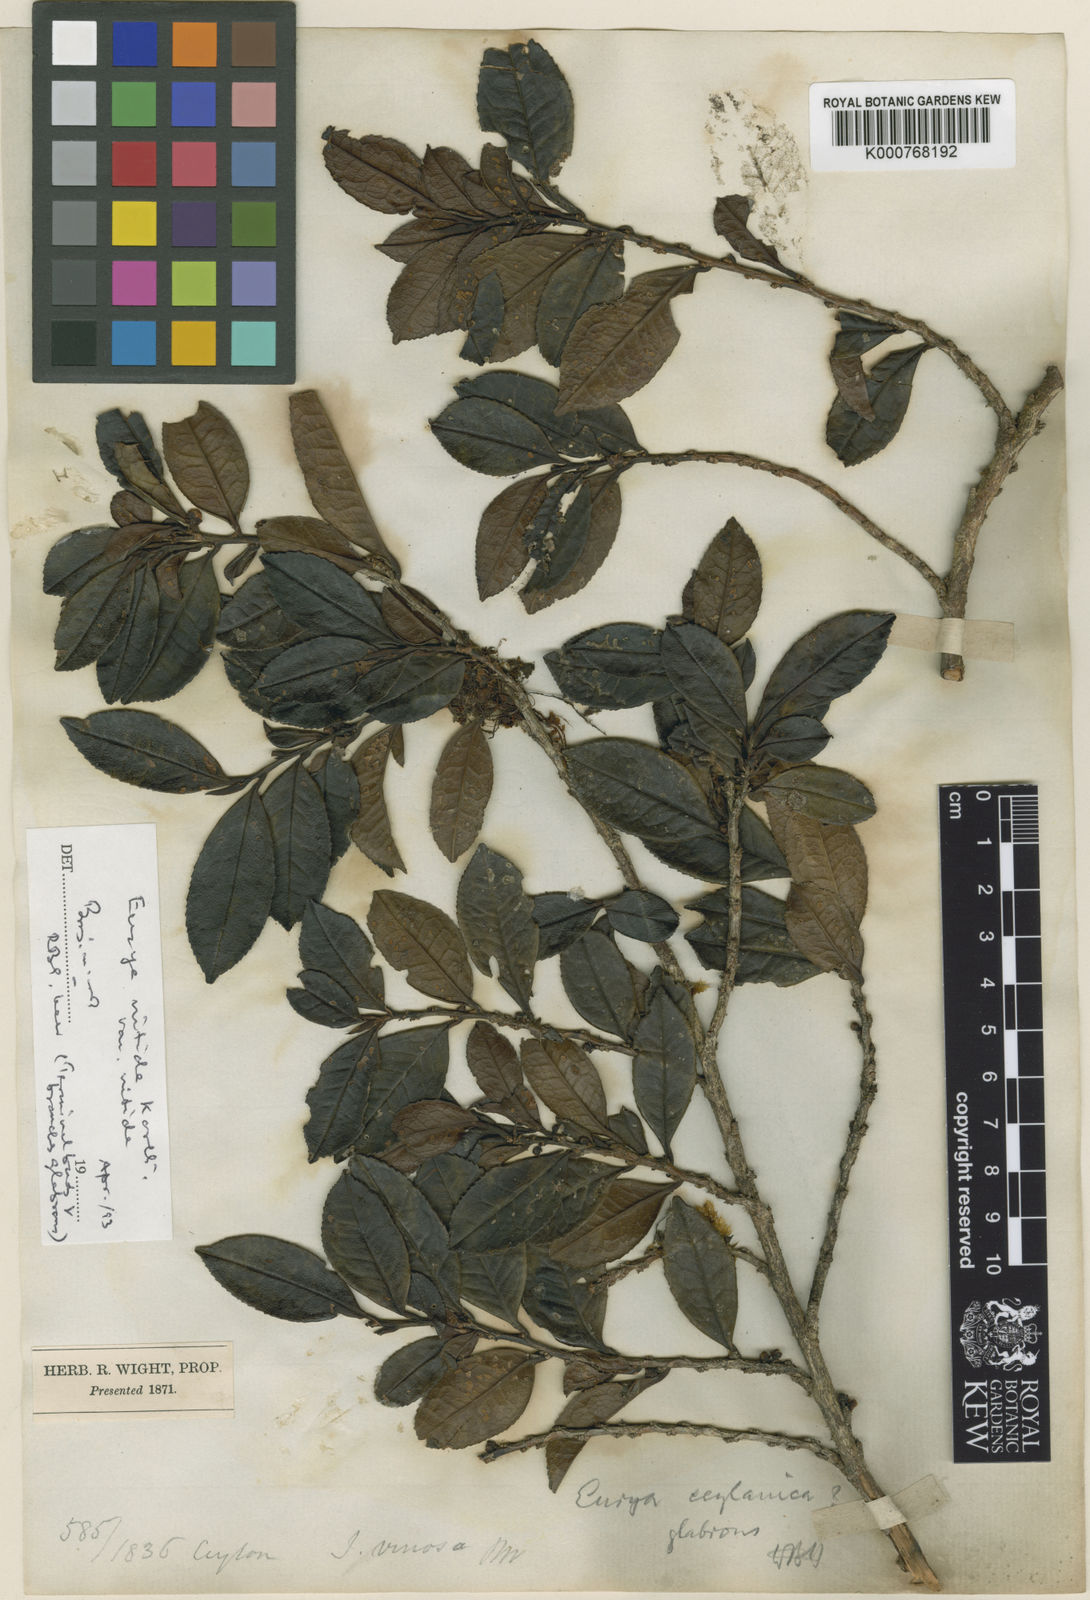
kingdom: Plantae
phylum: Tracheophyta
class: Magnoliopsida
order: Ericales
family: Pentaphylacaceae
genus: Eurya
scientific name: Eurya ceylanica
